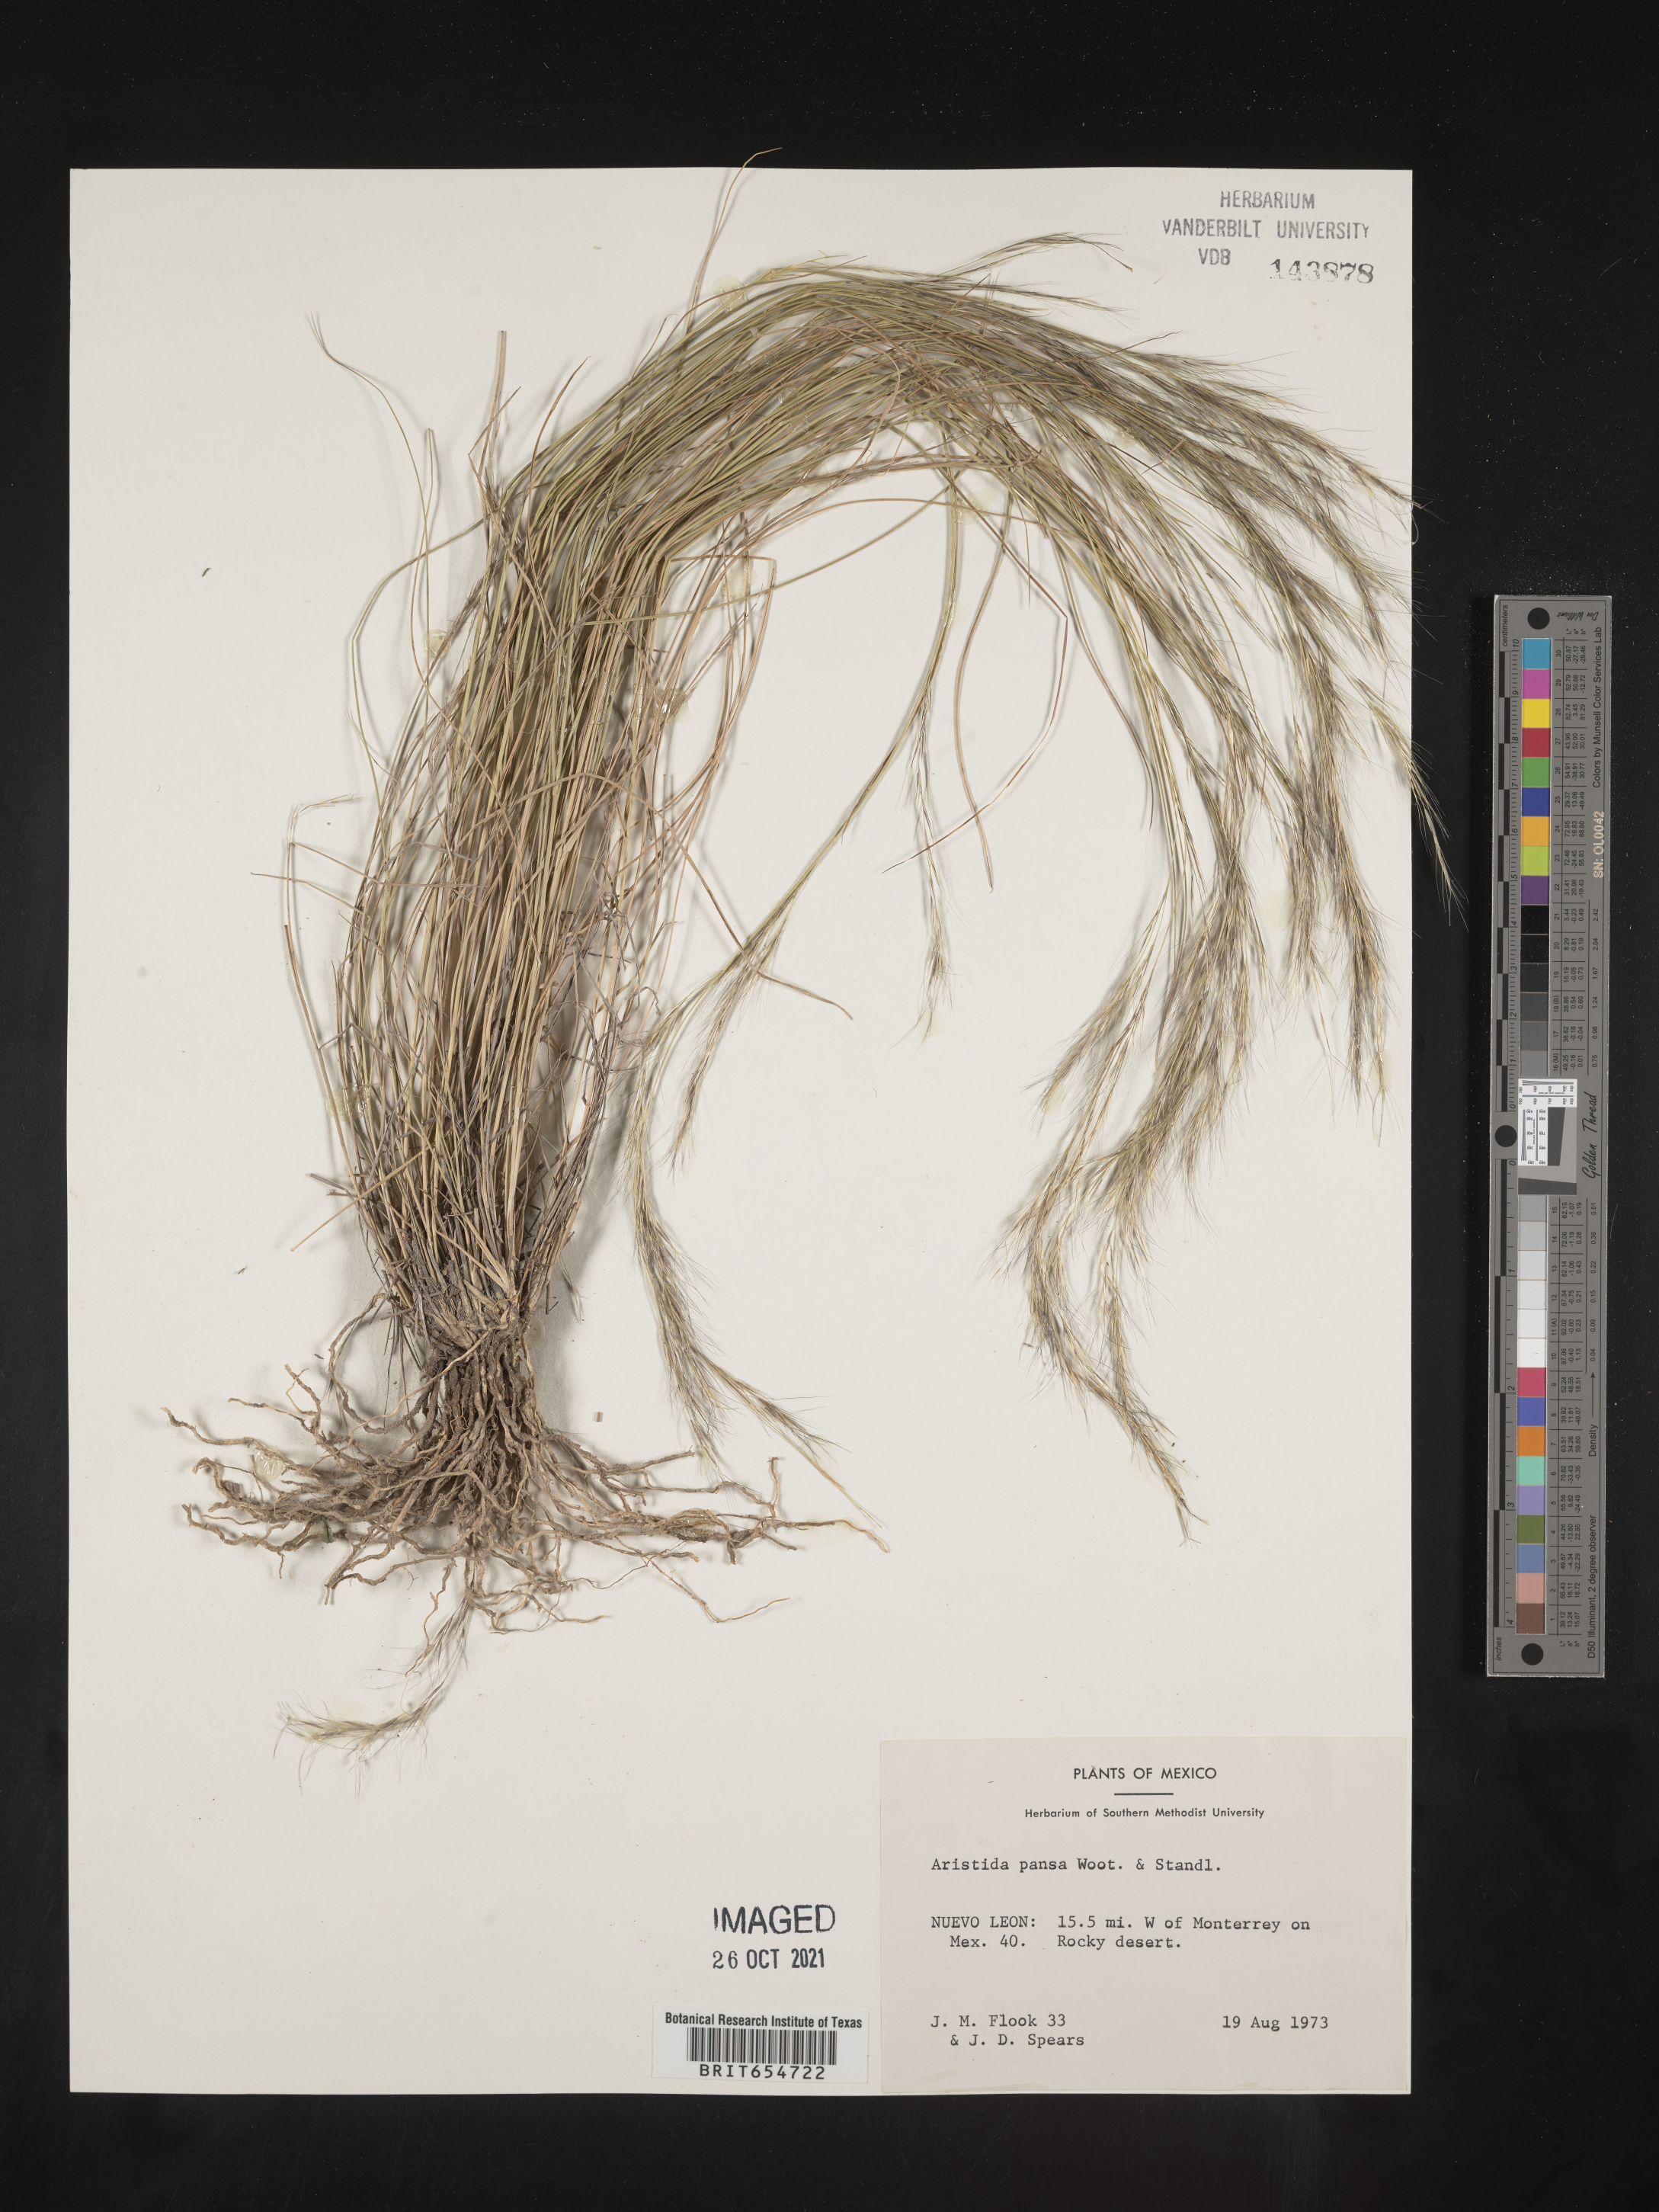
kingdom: Plantae
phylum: Tracheophyta
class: Liliopsida
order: Poales
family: Poaceae
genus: Aristida
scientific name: Aristida
